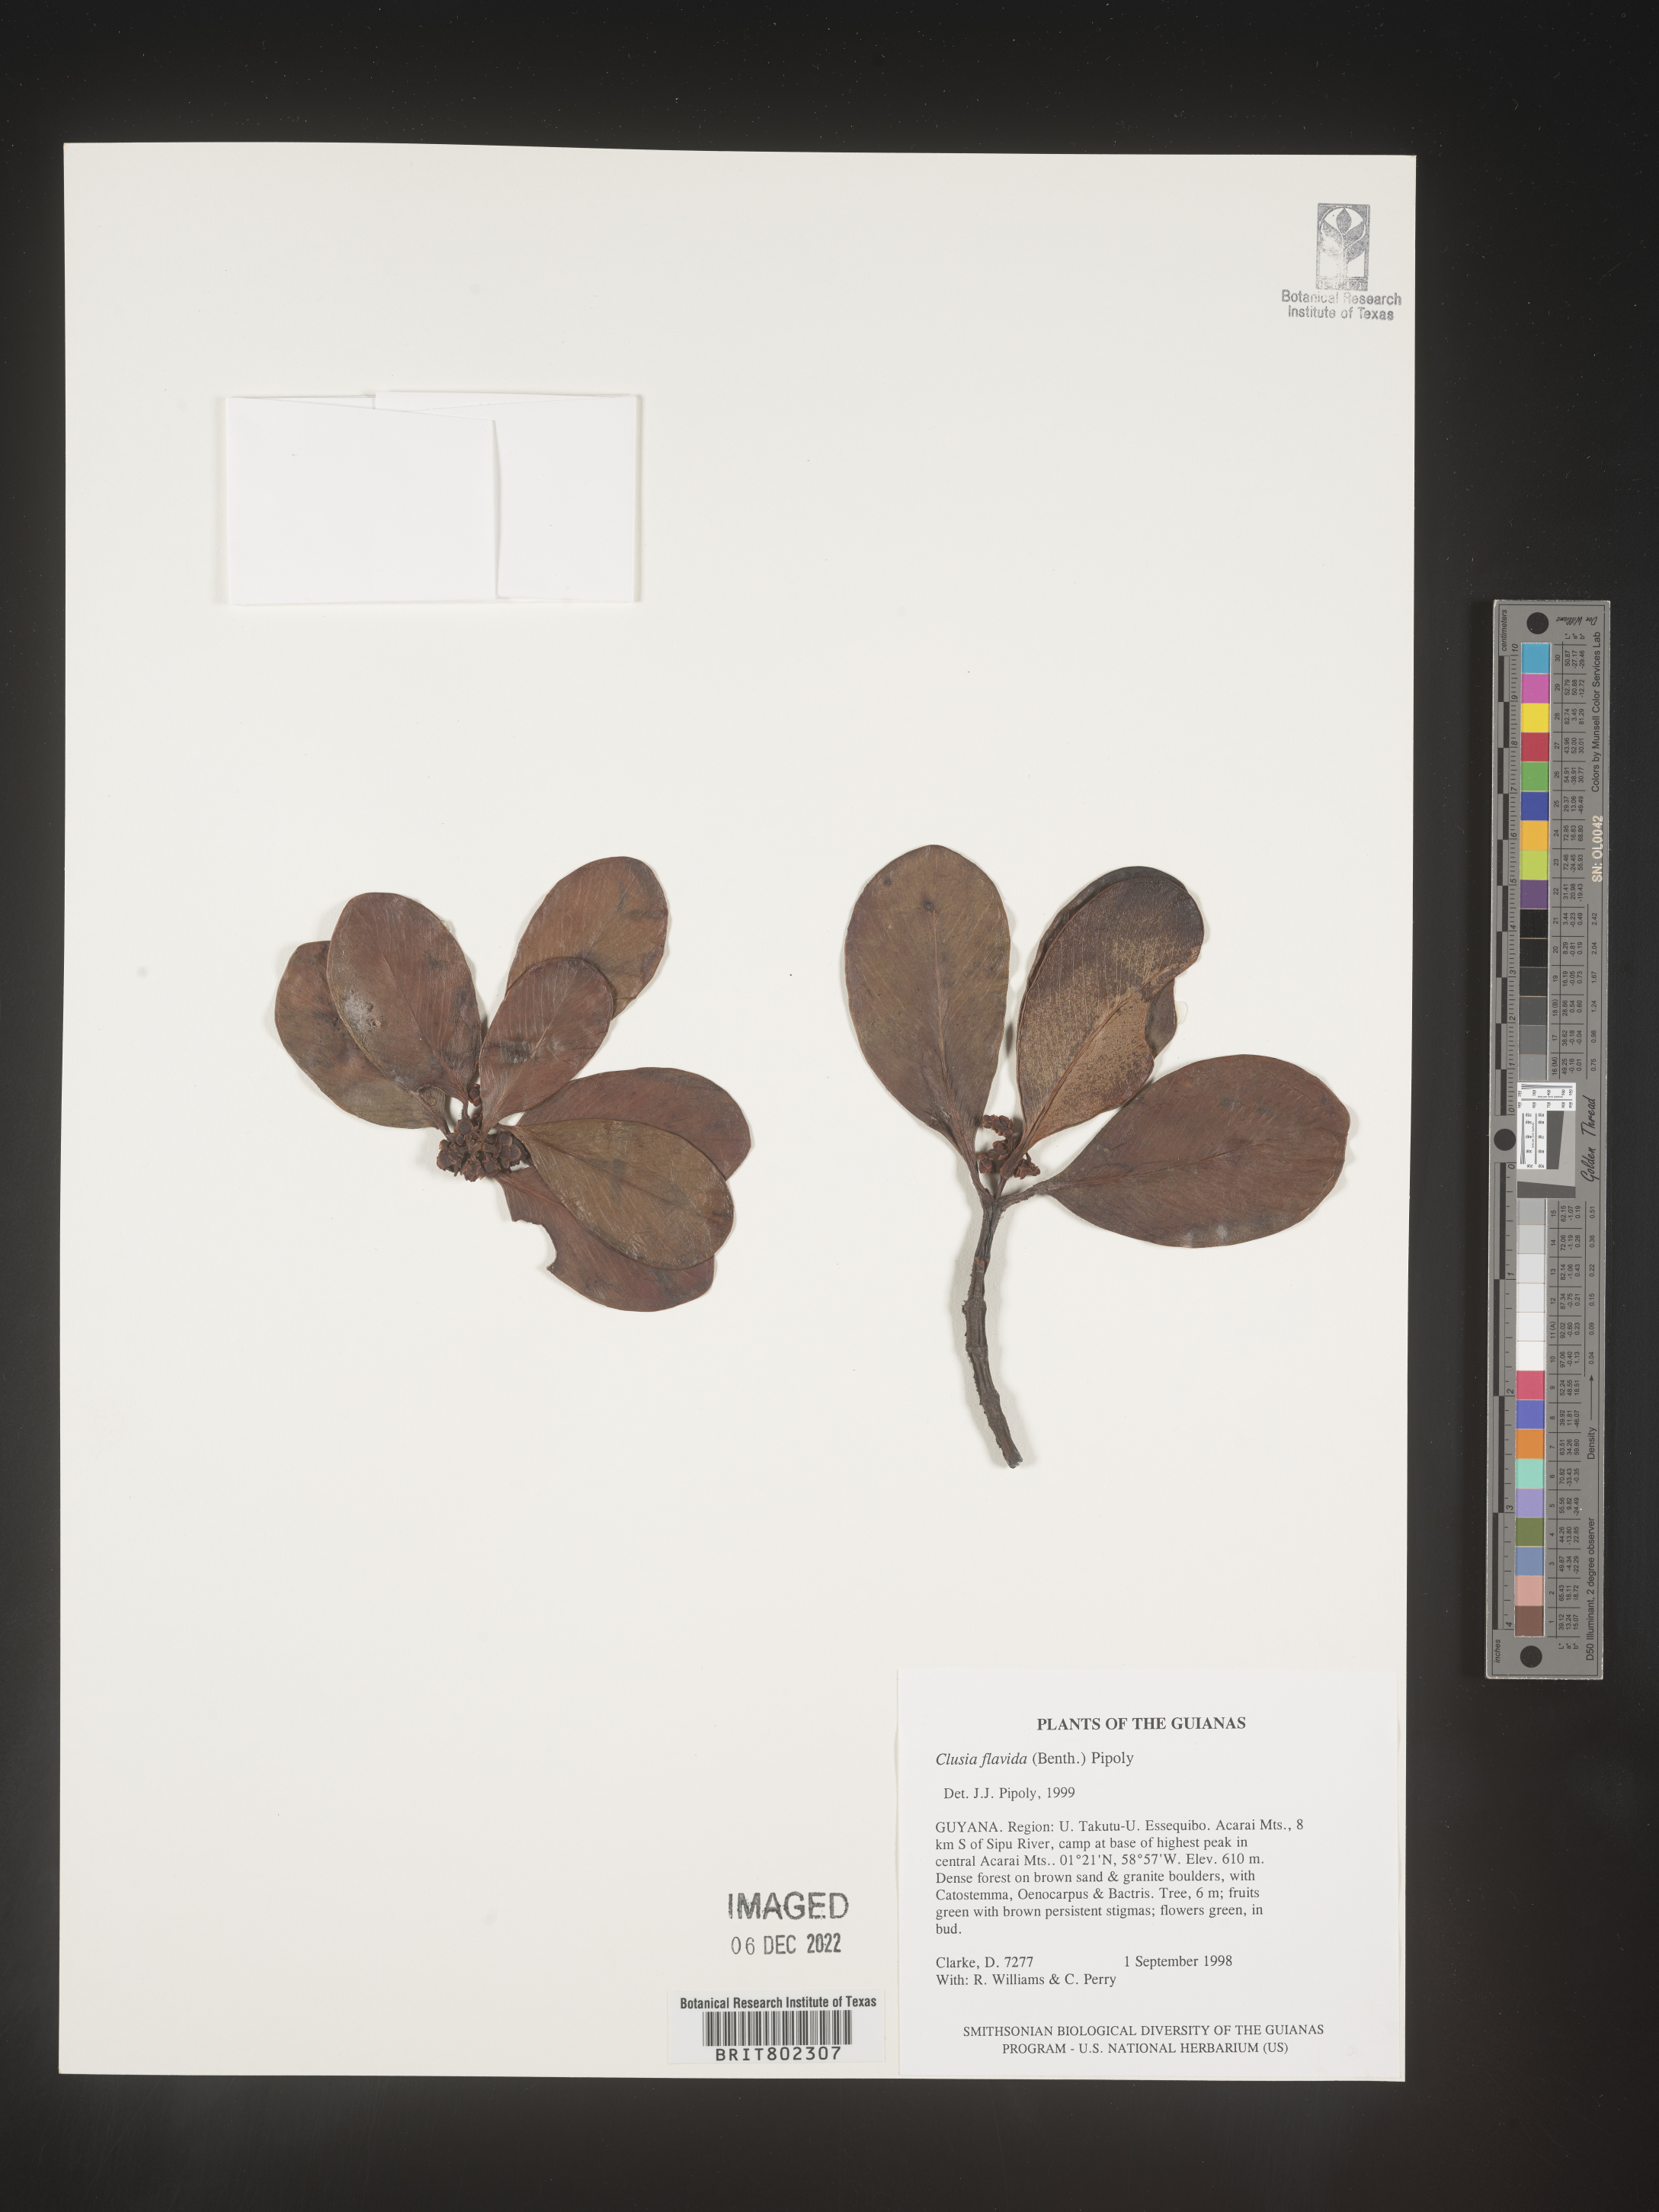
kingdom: Plantae
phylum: Tracheophyta
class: Magnoliopsida
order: Malpighiales
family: Clusiaceae
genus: Clusia
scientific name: Clusia flavida
